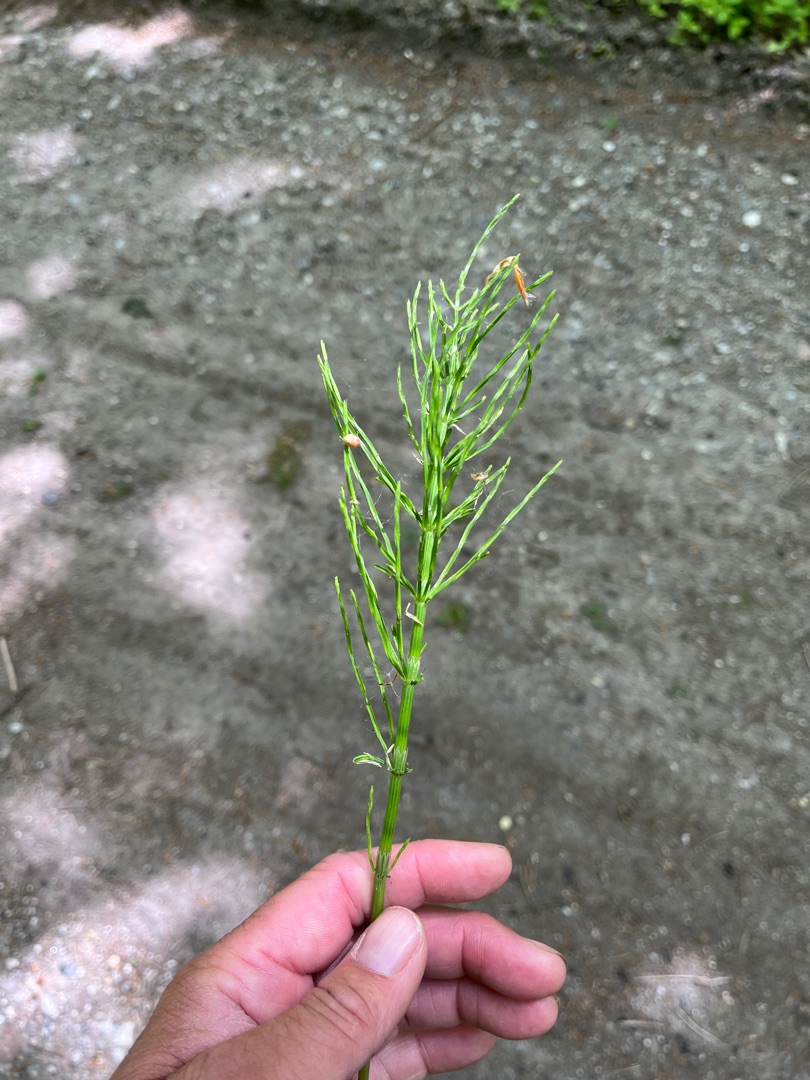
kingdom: Plantae
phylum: Tracheophyta
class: Polypodiopsida
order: Equisetales
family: Equisetaceae
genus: Equisetum
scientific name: Equisetum arvense
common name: Ager-padderok
